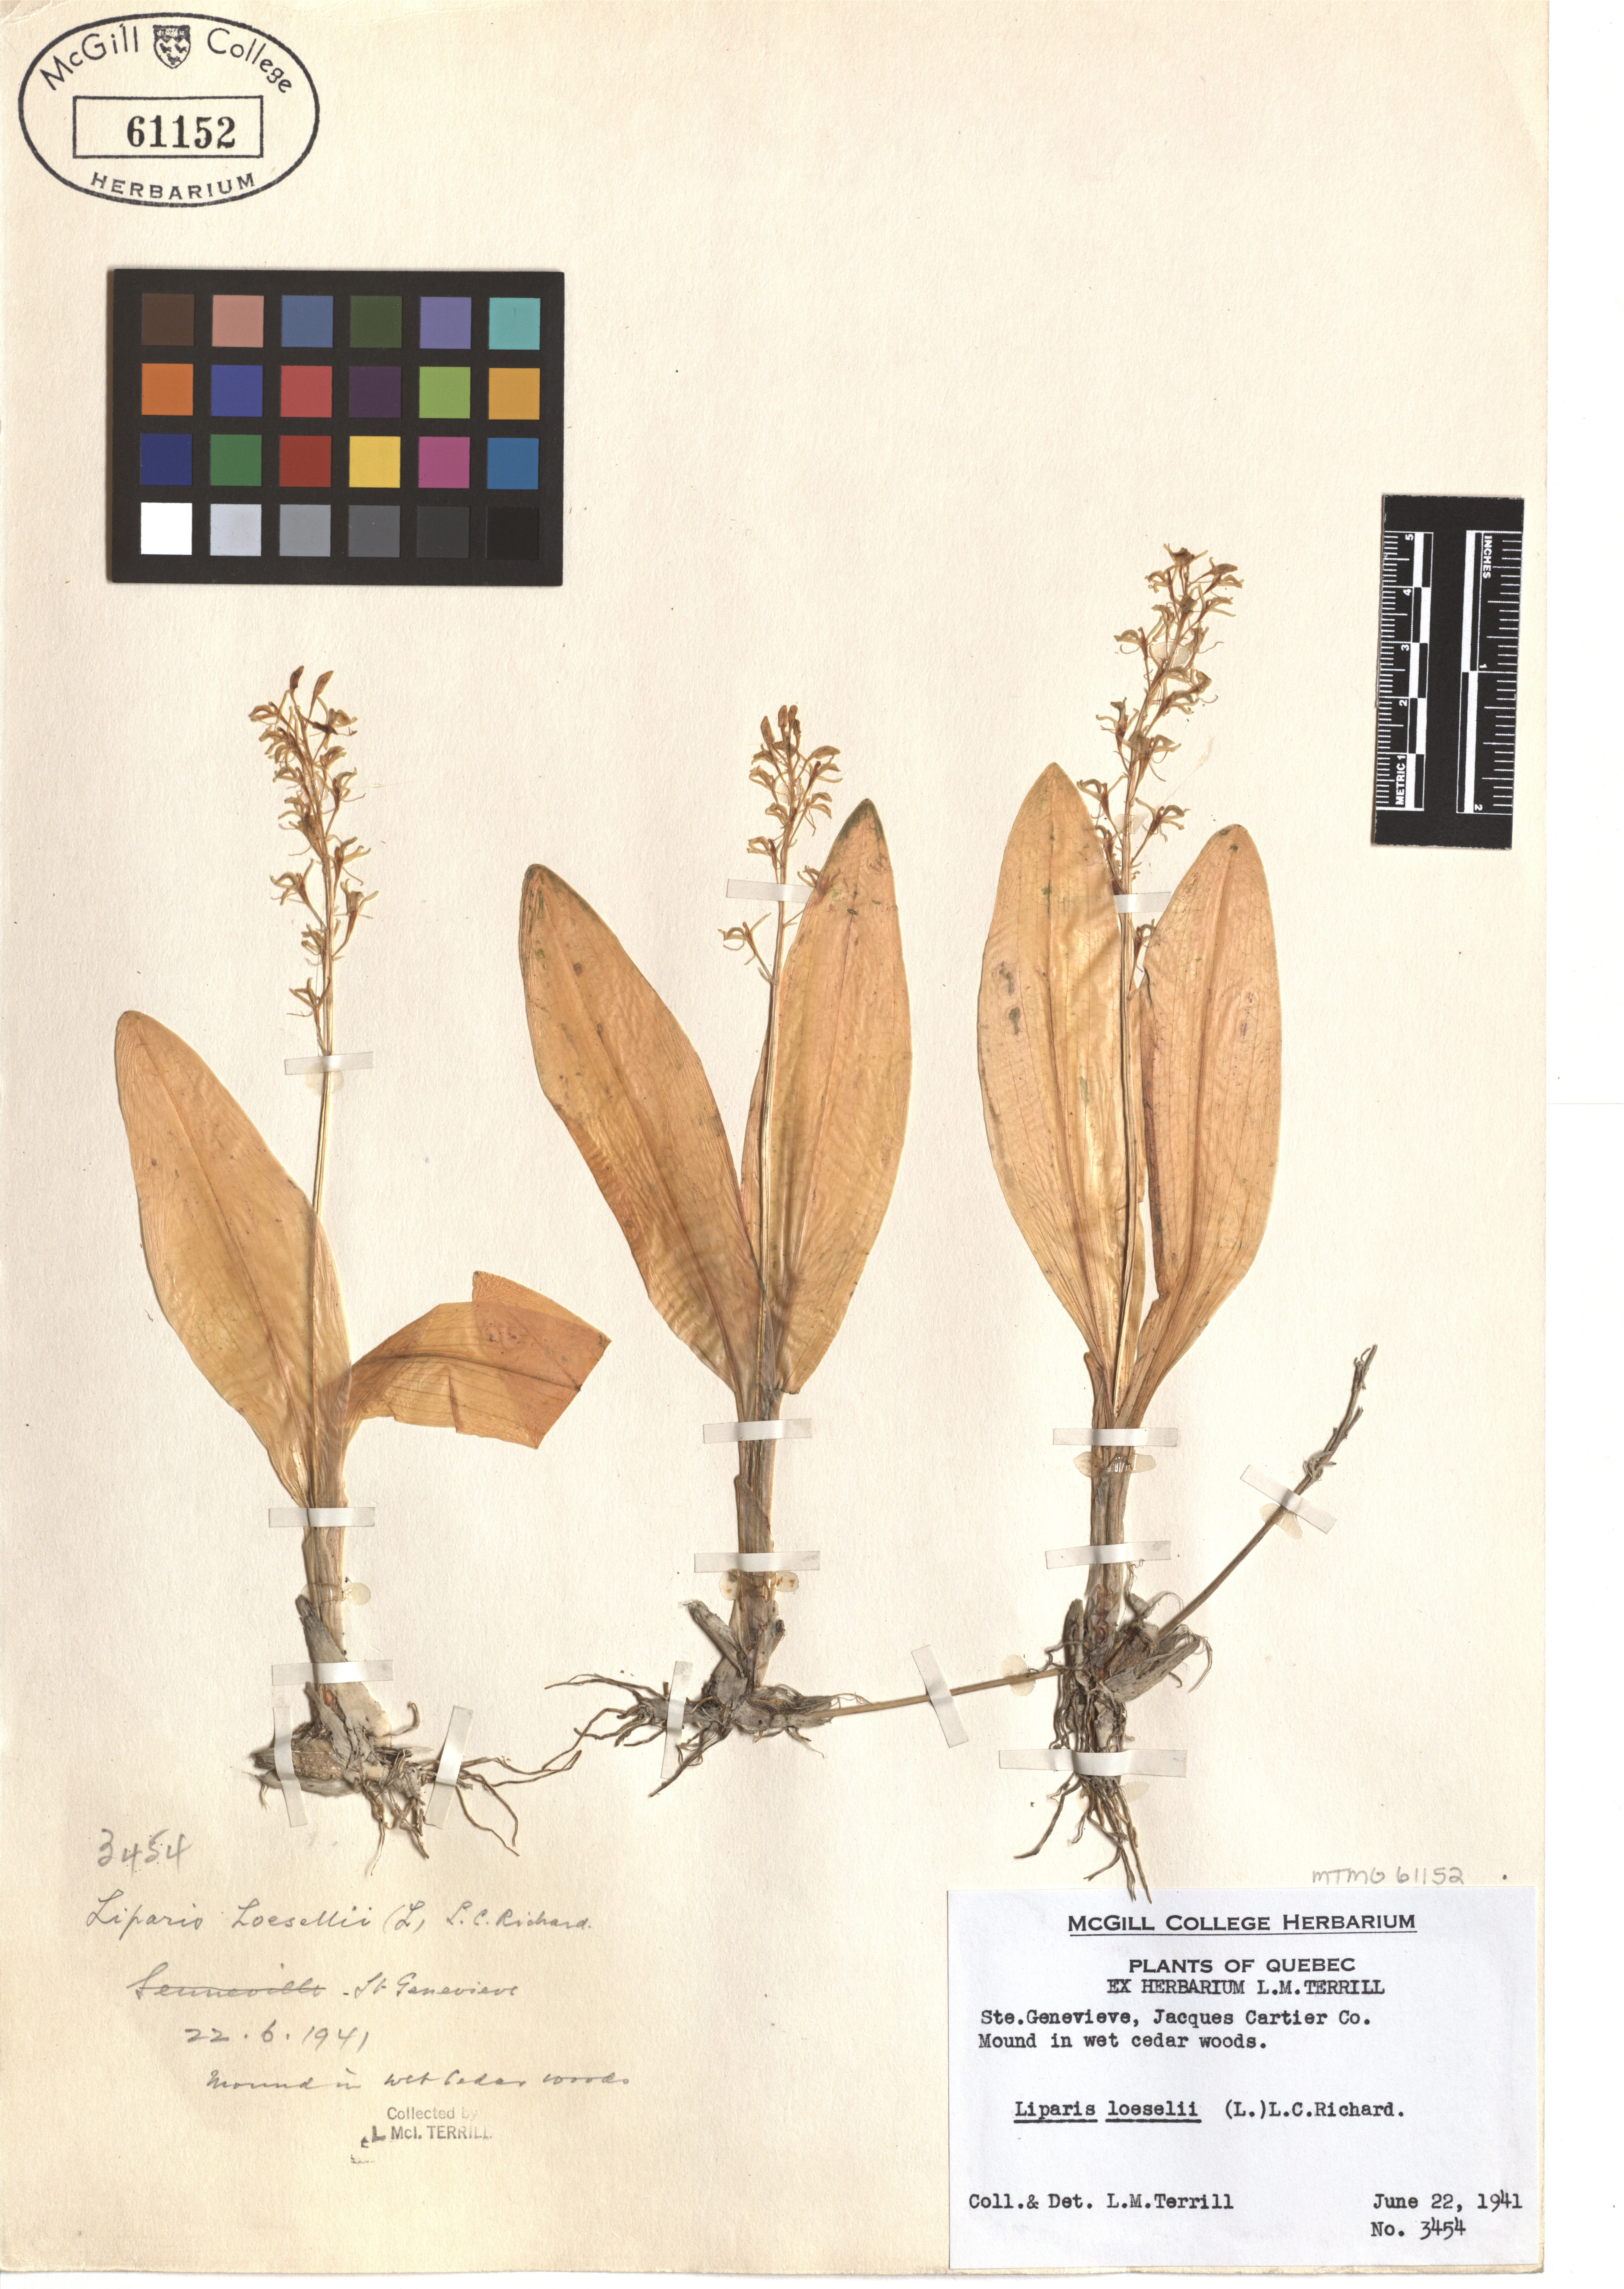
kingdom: Animalia
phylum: Arthropoda
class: Insecta
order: Coleoptera
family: Curculionidae
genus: Liparis
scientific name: Liparis loeselii
